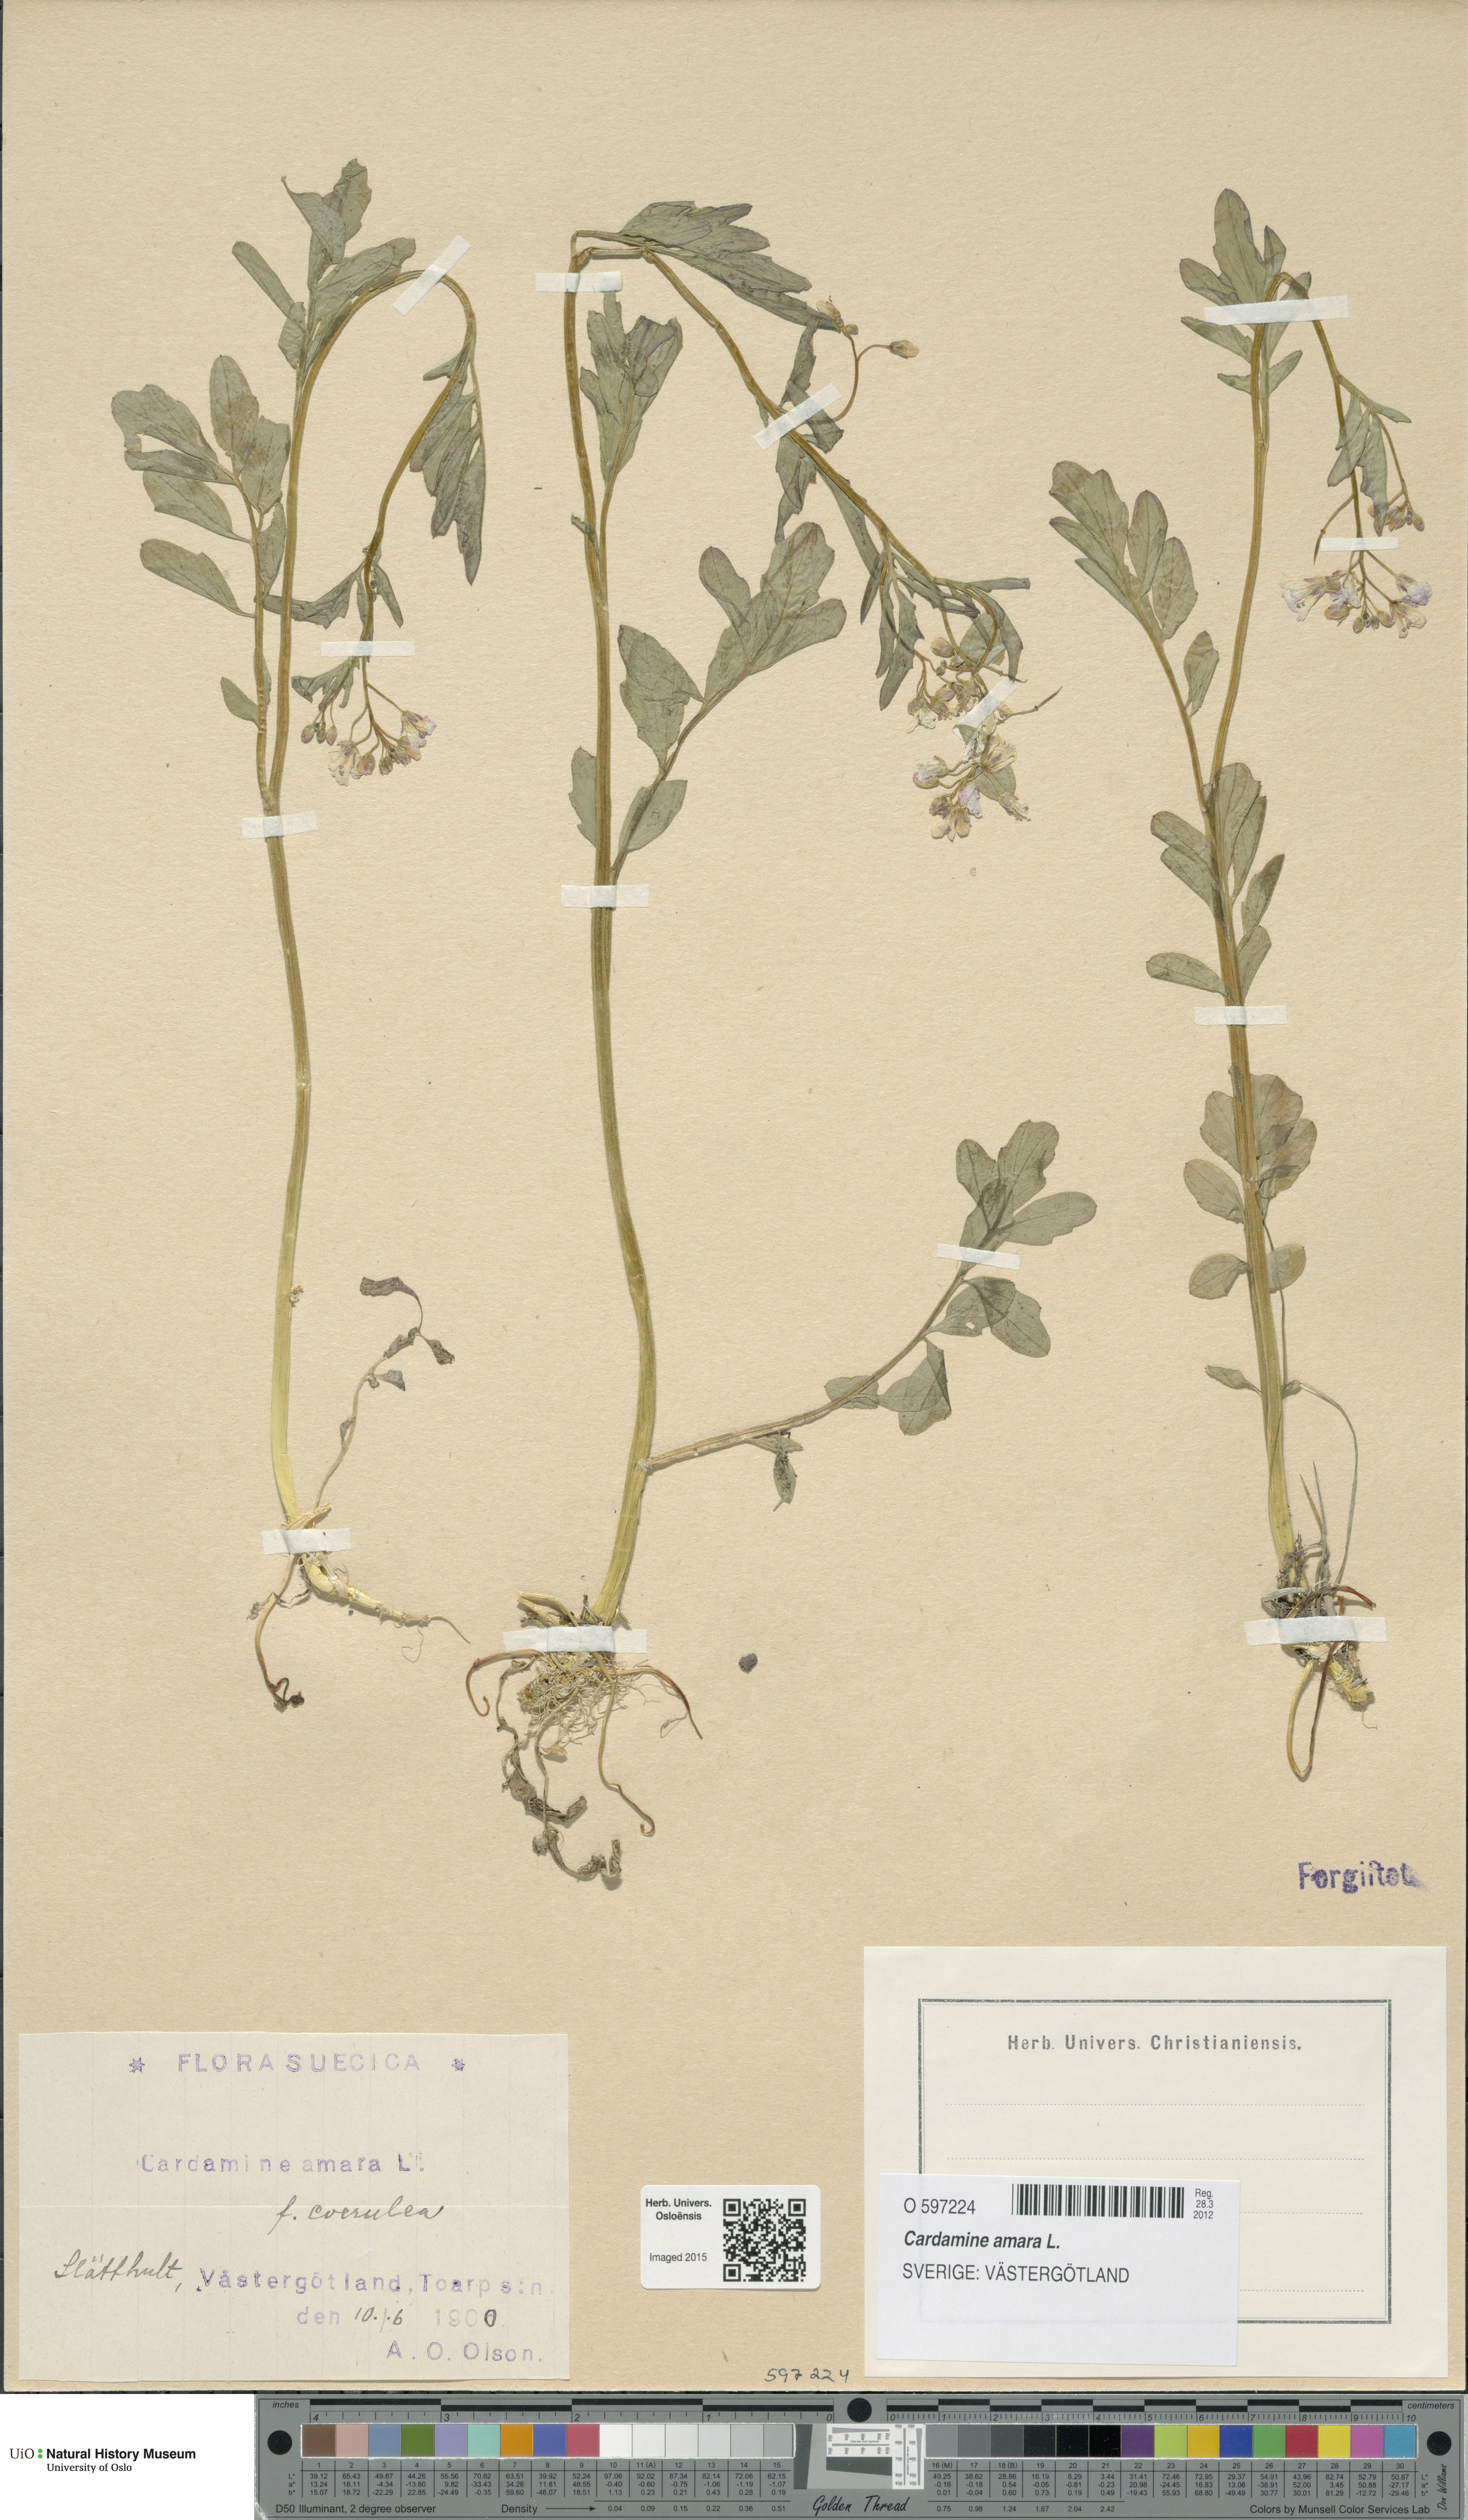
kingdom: Plantae
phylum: Tracheophyta
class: Magnoliopsida
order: Brassicales
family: Brassicaceae
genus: Cardamine
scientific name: Cardamine amara
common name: Large bitter-cress
